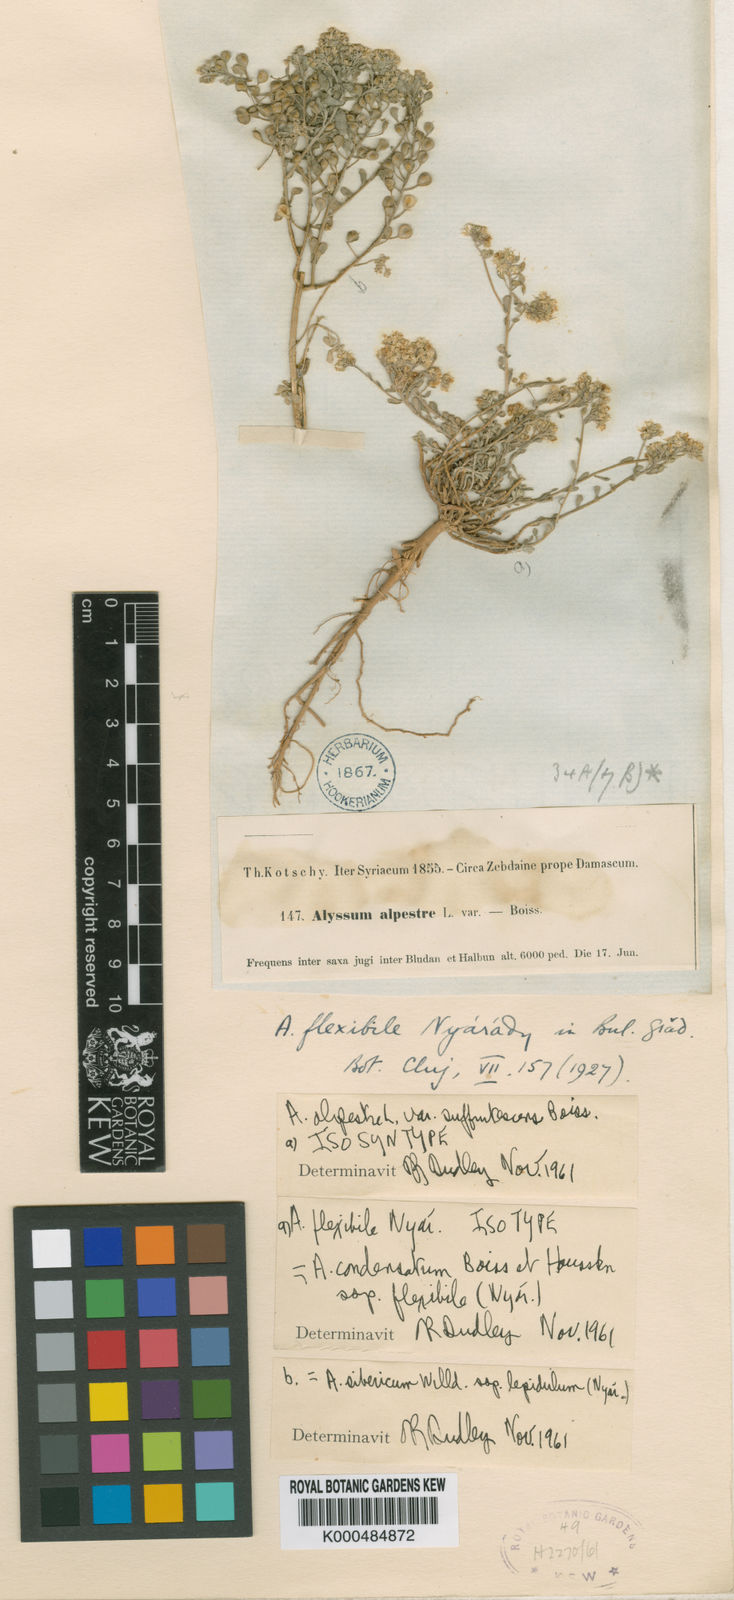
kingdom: Plantae
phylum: Tracheophyta
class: Magnoliopsida
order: Brassicales
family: Brassicaceae
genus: Odontarrhena
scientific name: Odontarrhena condensata
